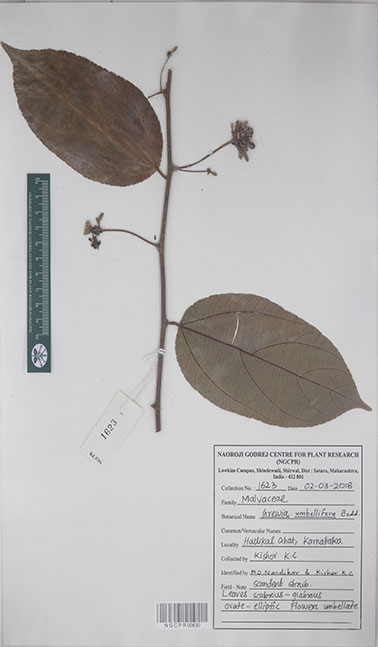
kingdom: Plantae
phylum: Tracheophyta
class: Magnoliopsida
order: Malvales
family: Malvaceae
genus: Grewia
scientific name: Grewia umbellifera
